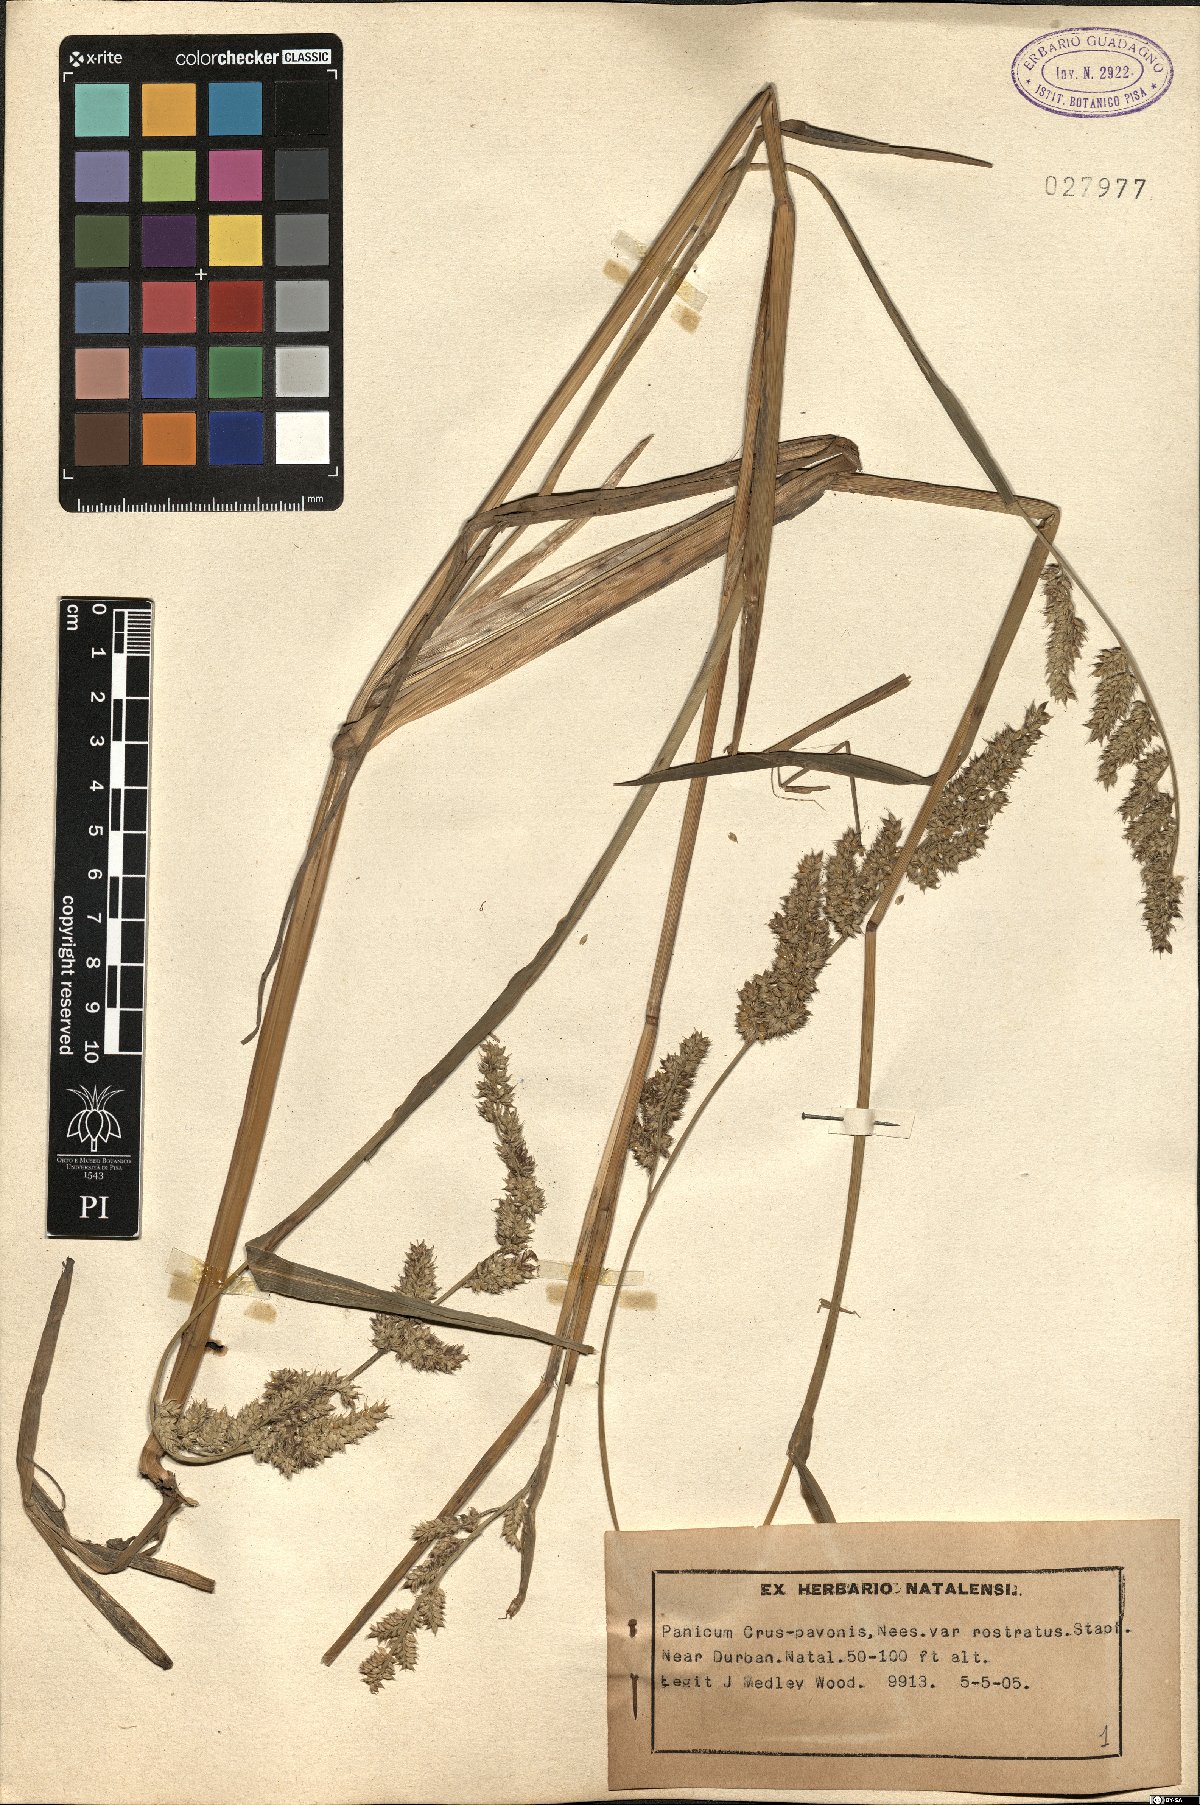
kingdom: Plantae
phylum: Tracheophyta
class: Liliopsida
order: Poales
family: Poaceae
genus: Echinochloa
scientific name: Echinochloa crus-pavonis
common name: Gulf cockspur grass
